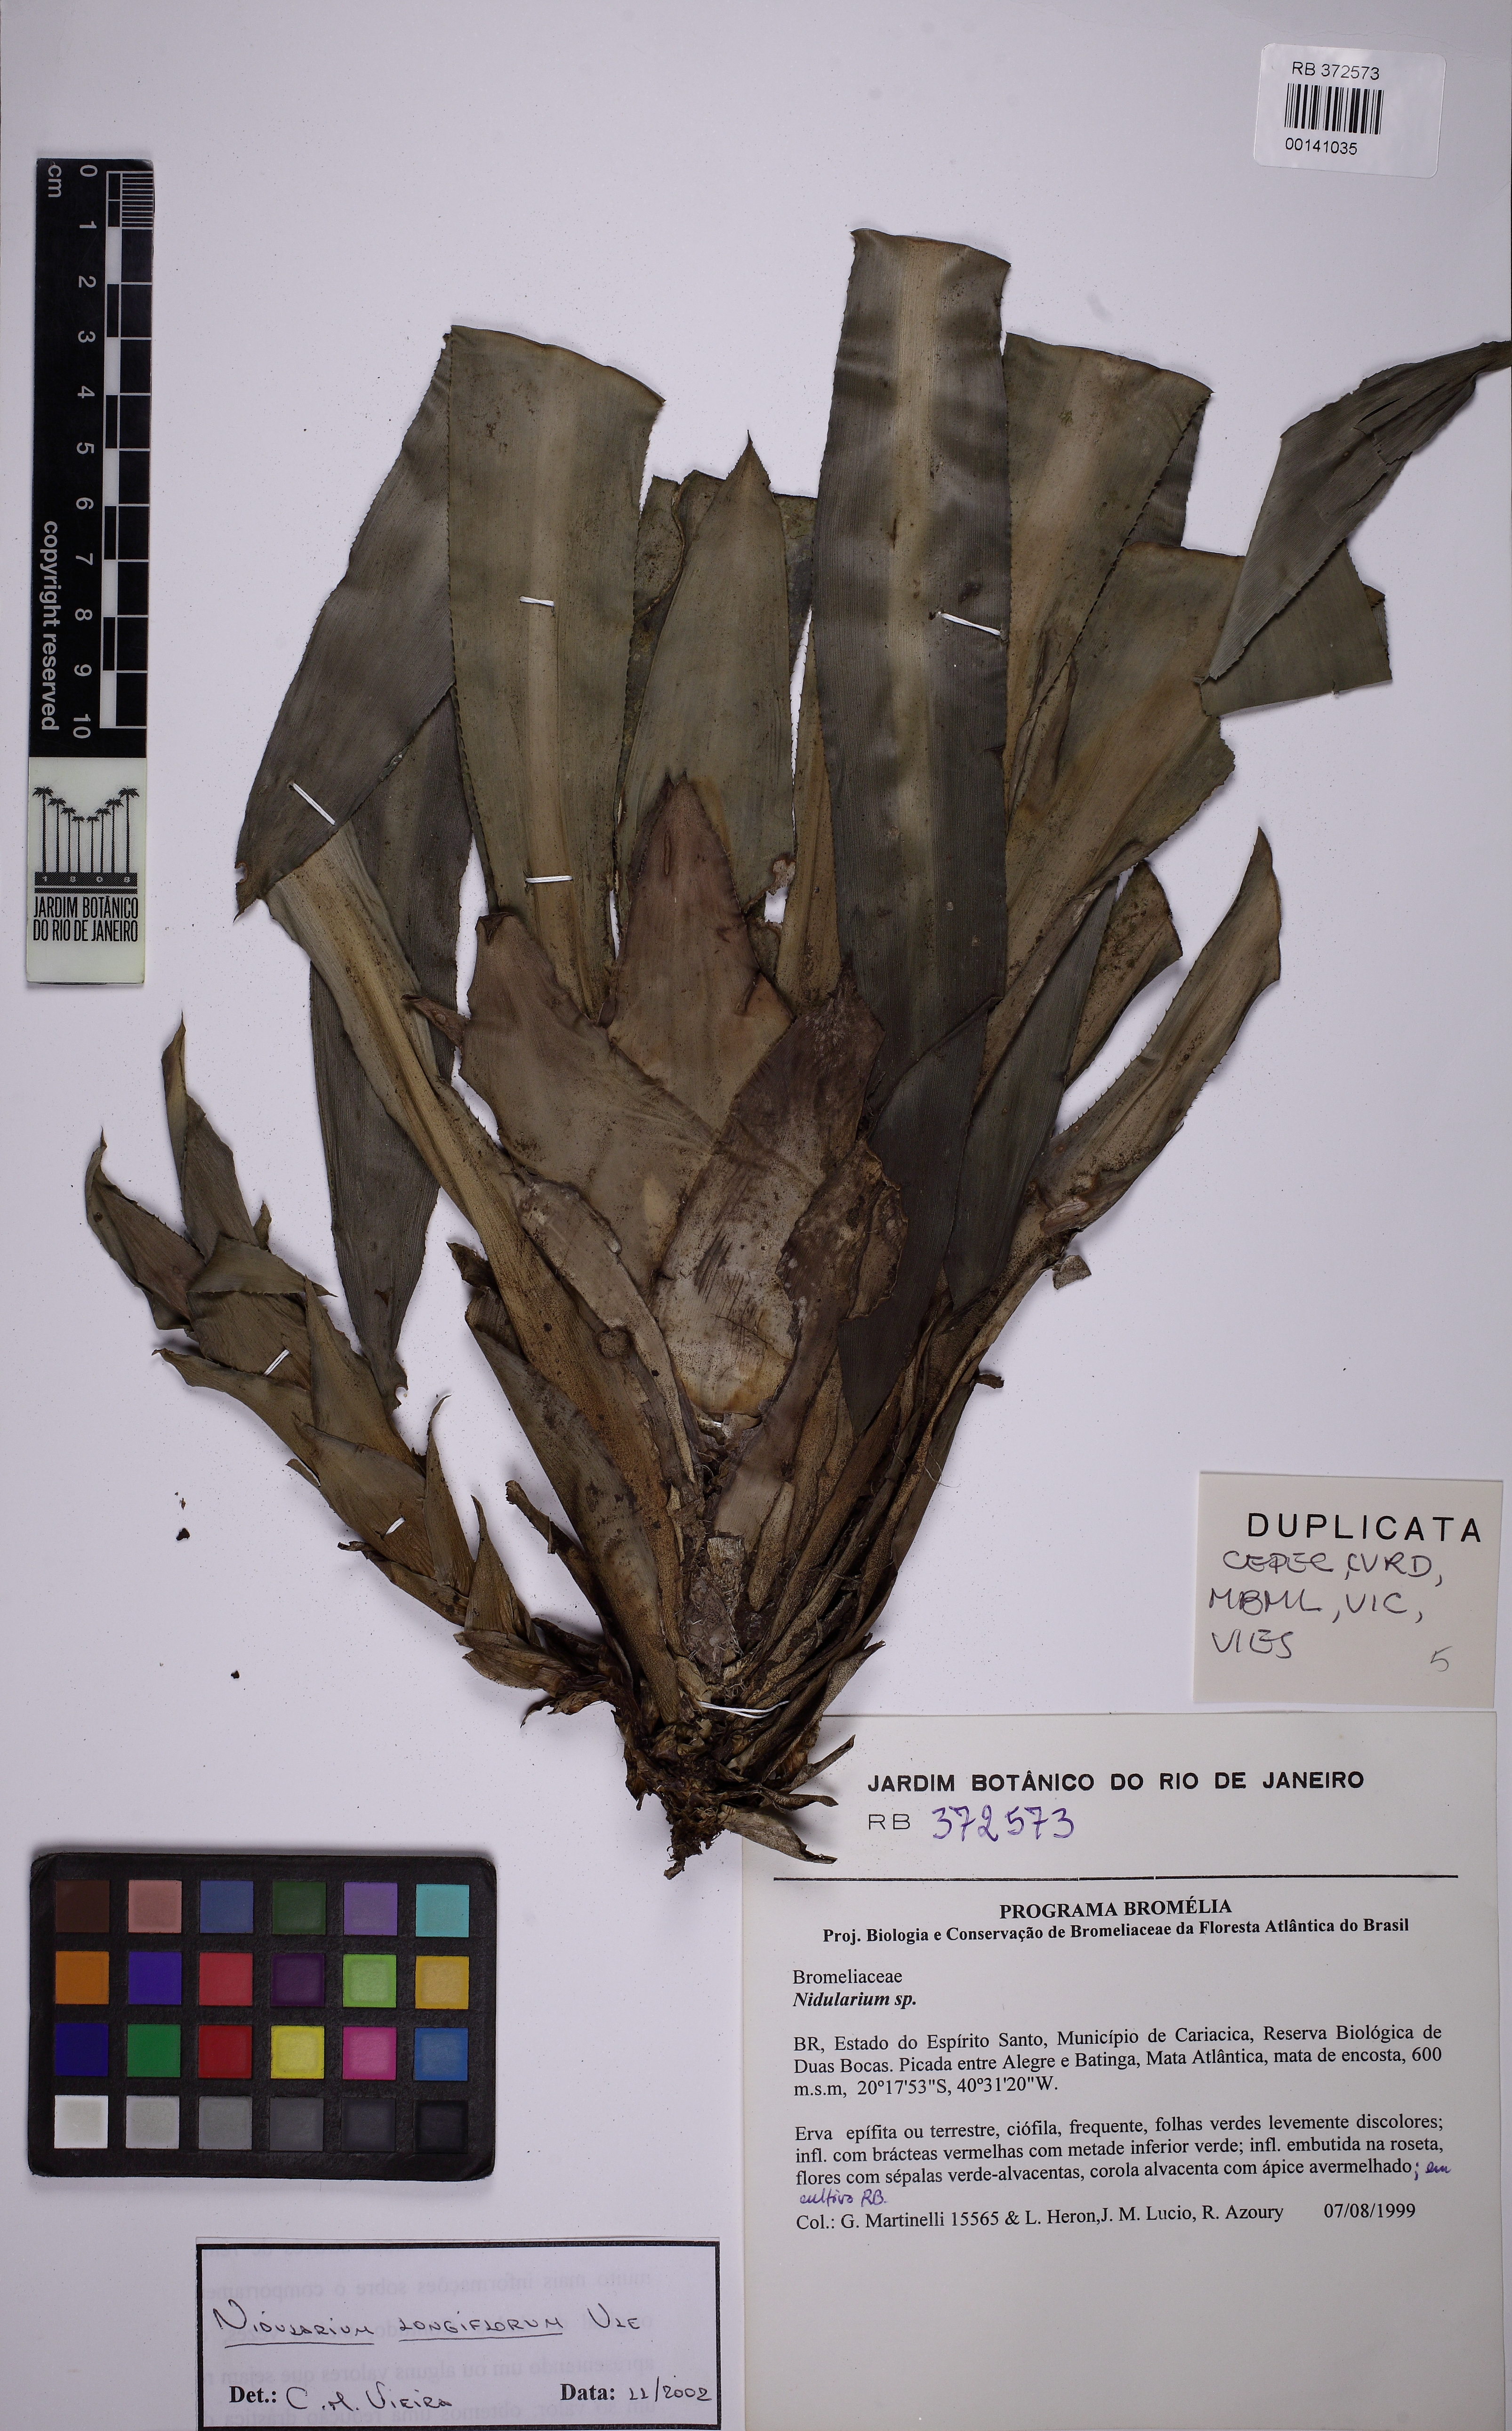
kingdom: Plantae
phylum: Tracheophyta
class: Liliopsida
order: Poales
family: Bromeliaceae
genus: Nidularium
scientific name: Nidularium longiflorum
